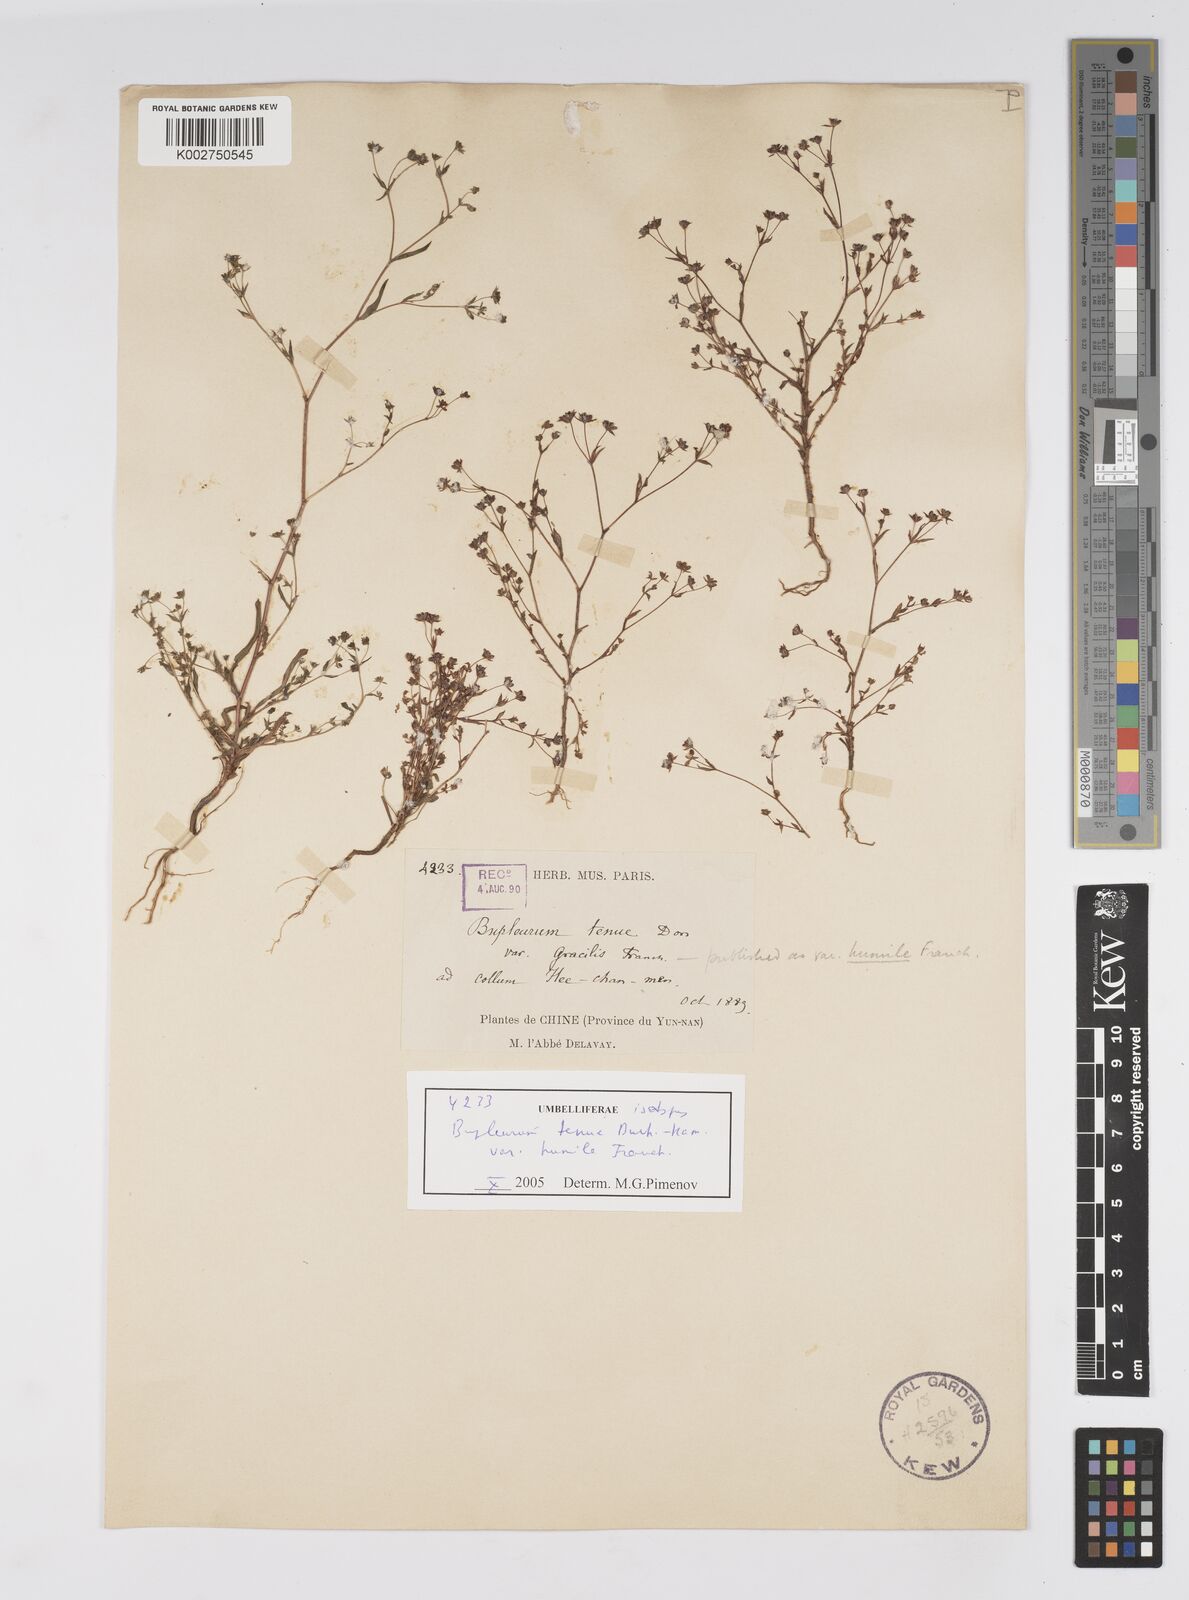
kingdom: Plantae
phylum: Tracheophyta
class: Magnoliopsida
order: Apiales
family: Apiaceae
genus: Bupleurum
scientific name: Bupleurum hamiltonii
